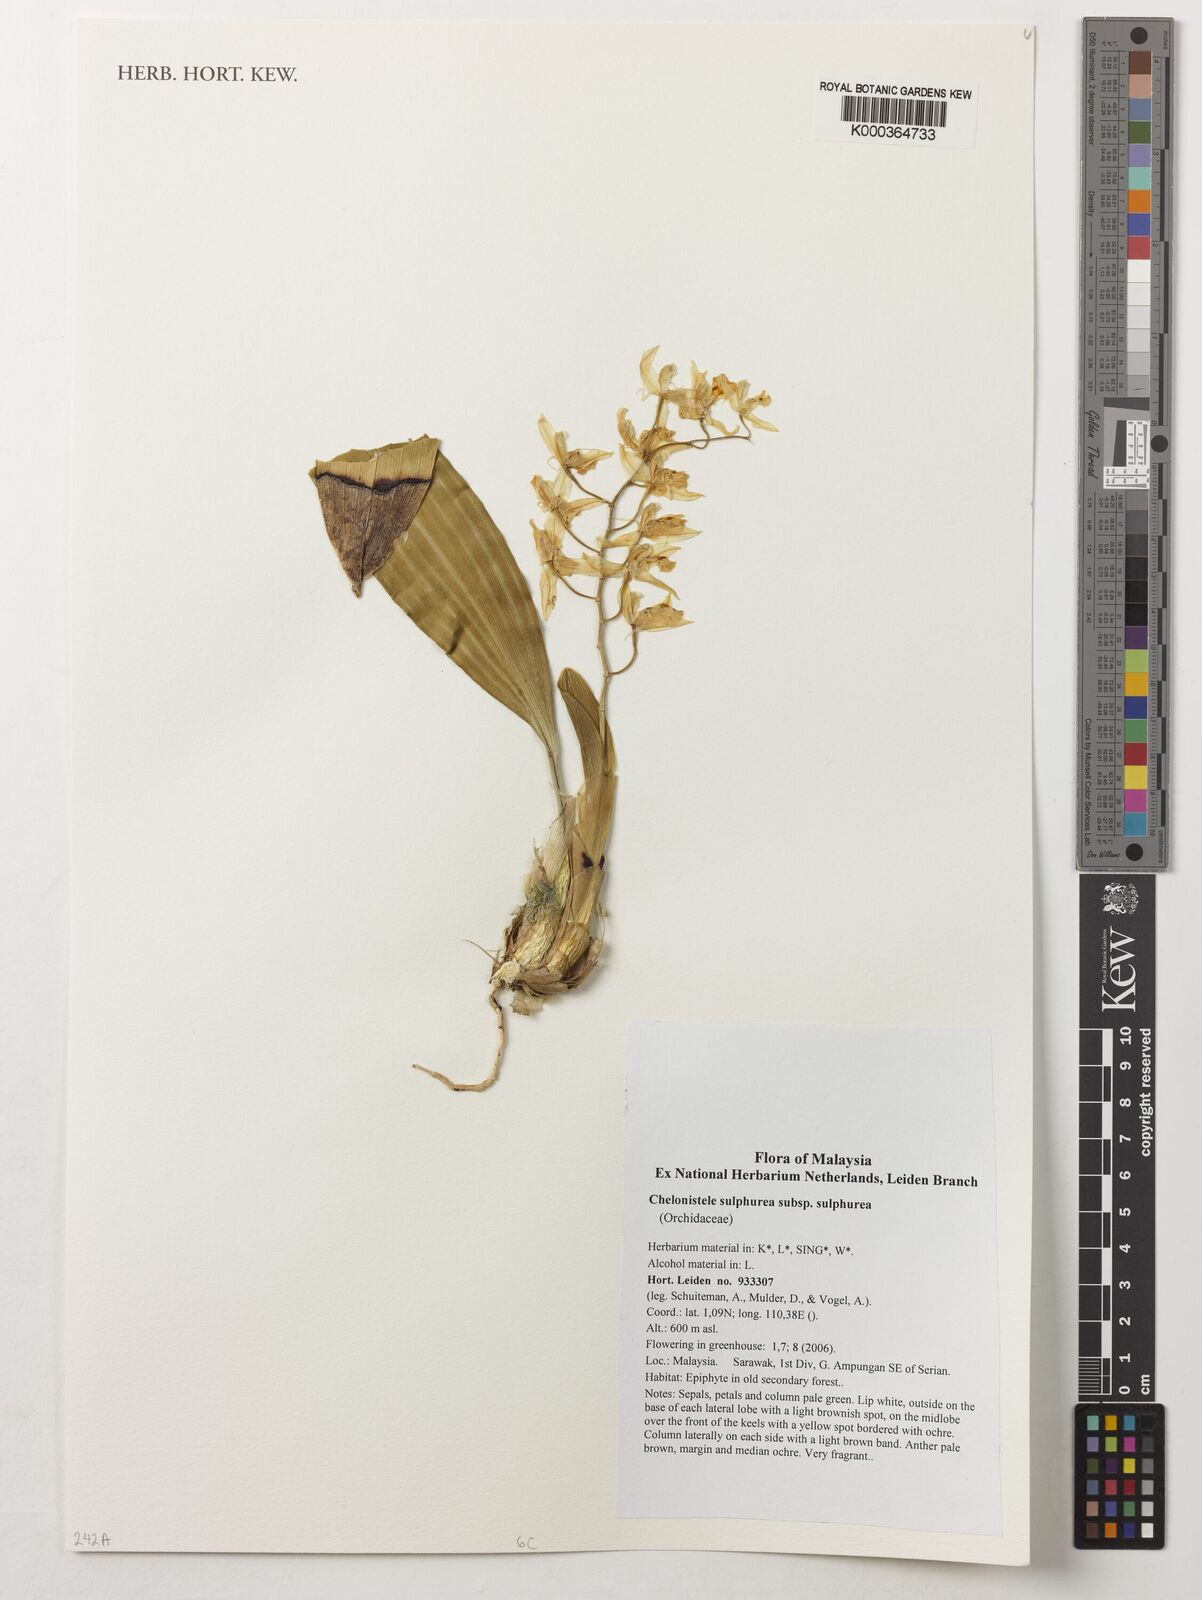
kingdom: Plantae
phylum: Tracheophyta
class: Liliopsida
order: Asparagales
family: Orchidaceae
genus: Coelogyne
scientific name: Coelogyne sulphurea
